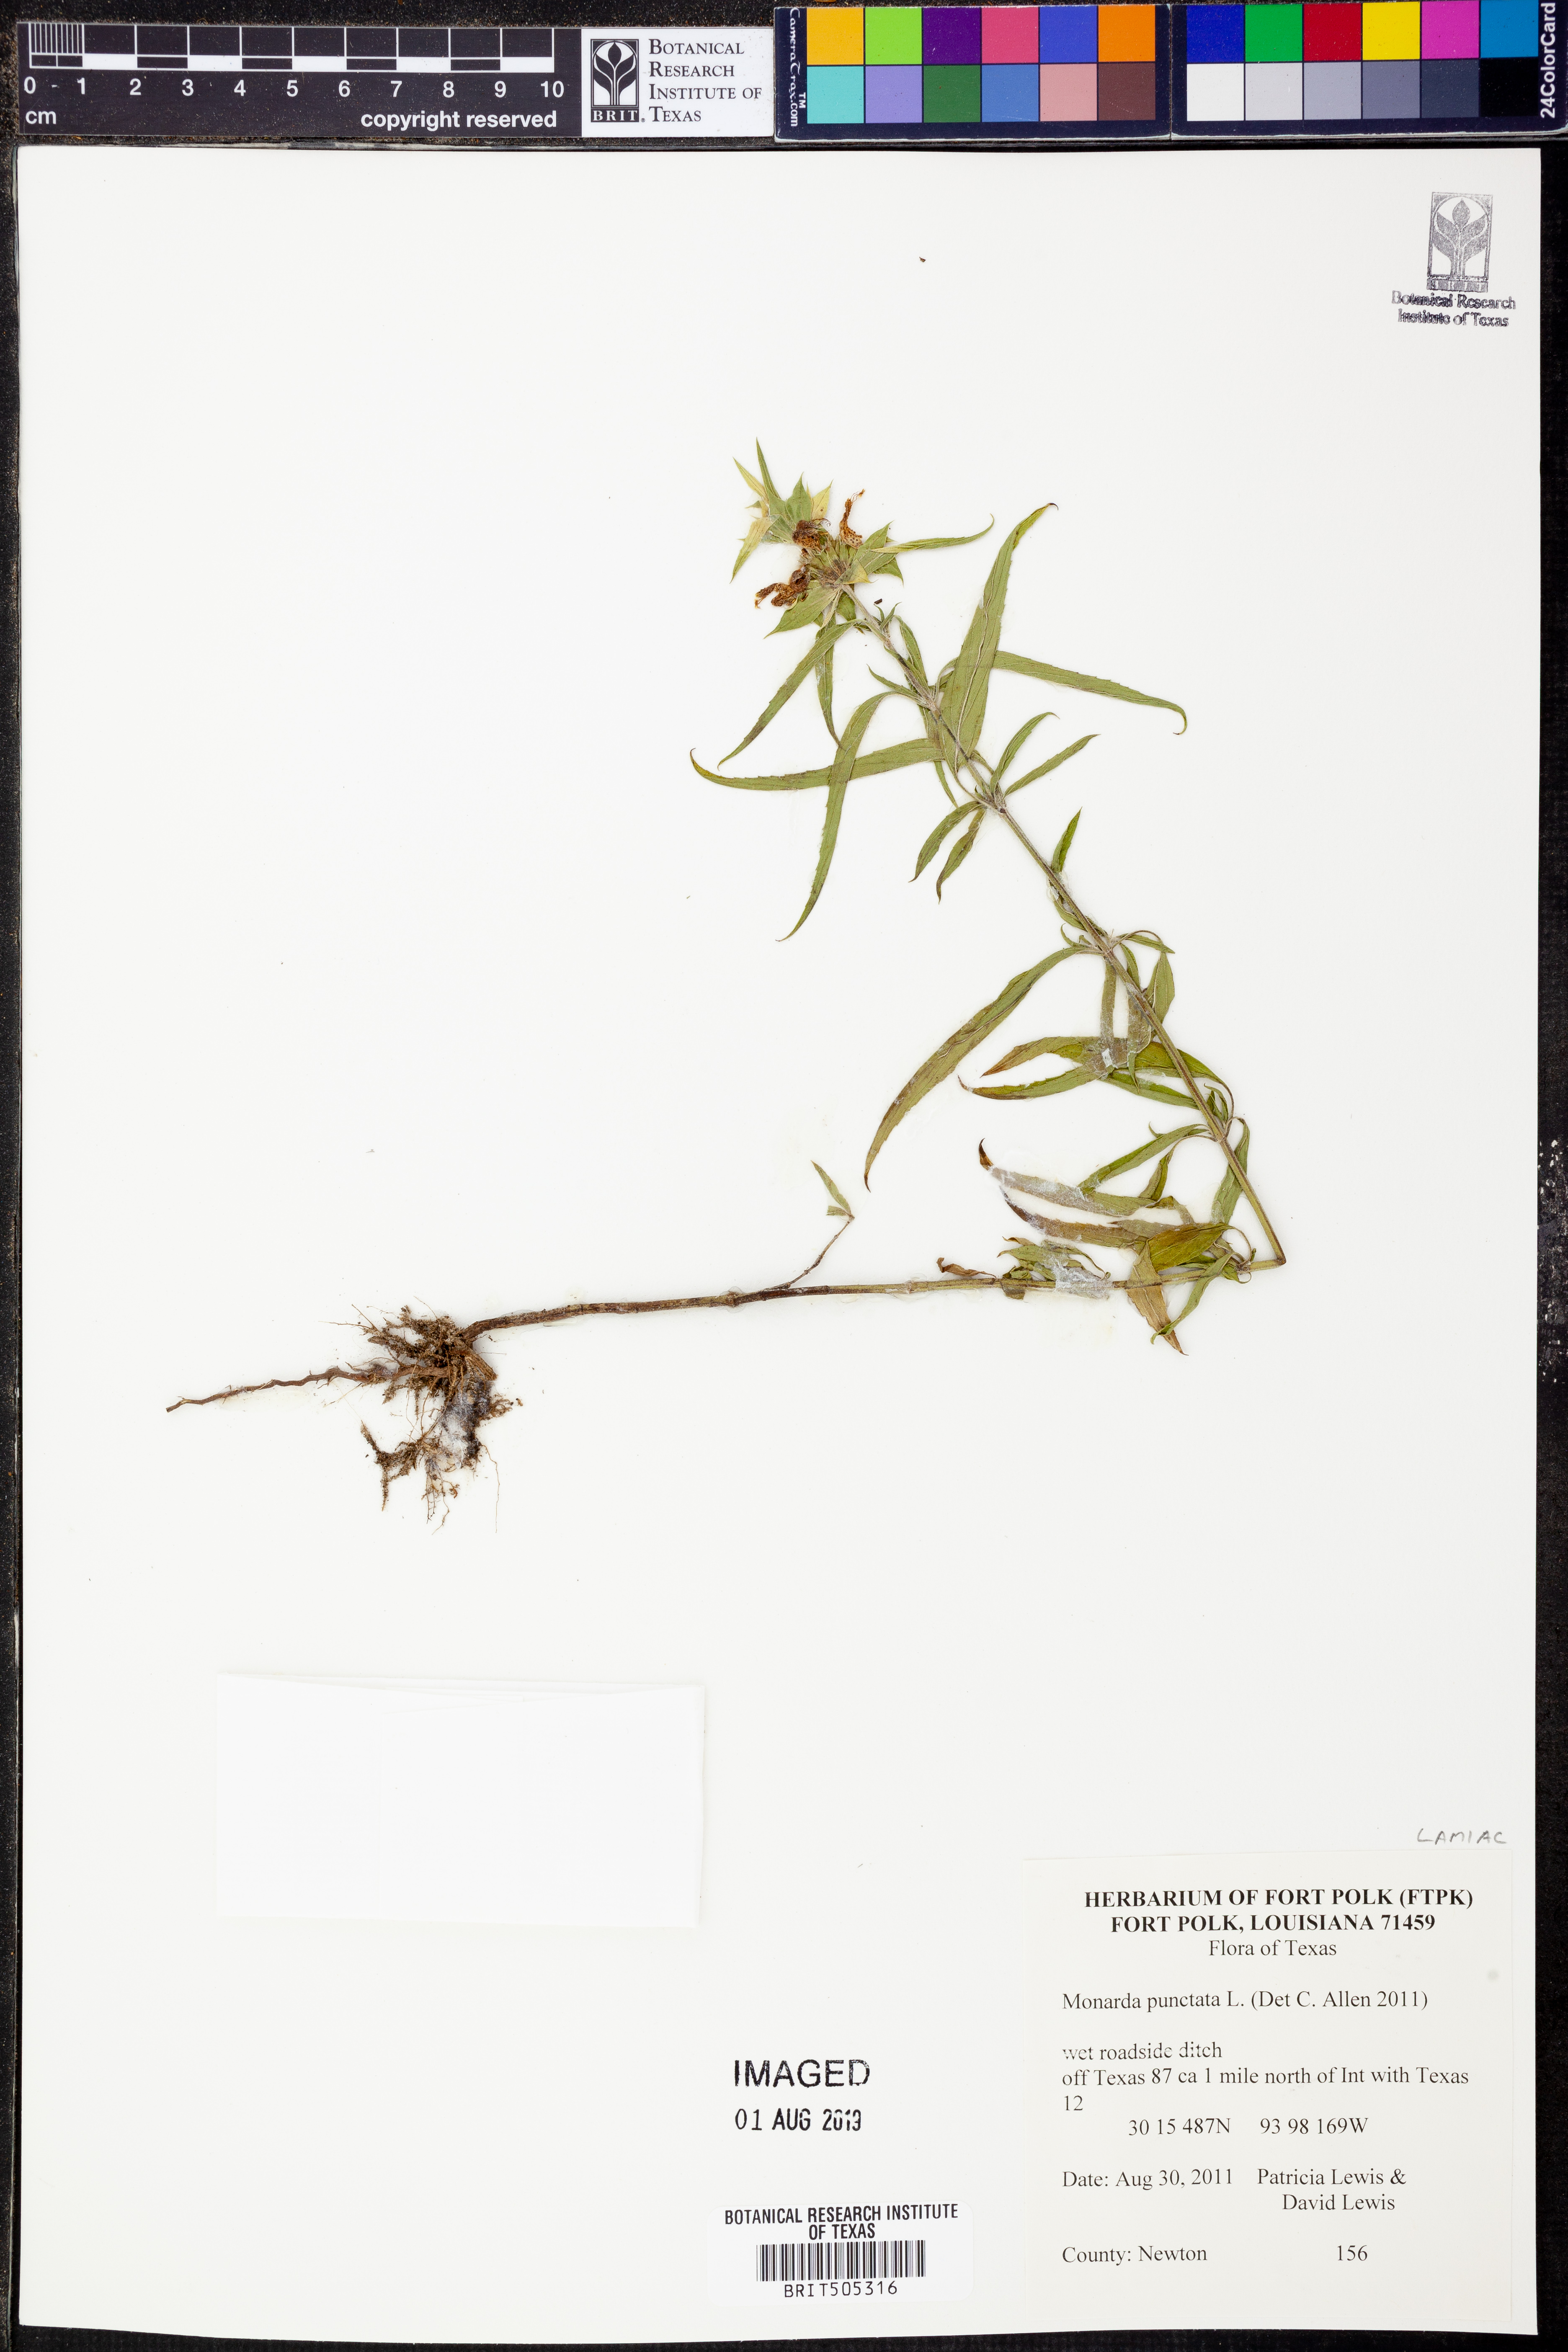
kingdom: Plantae
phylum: Tracheophyta
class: Magnoliopsida
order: Lamiales
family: Lamiaceae
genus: Monarda
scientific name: Monarda
